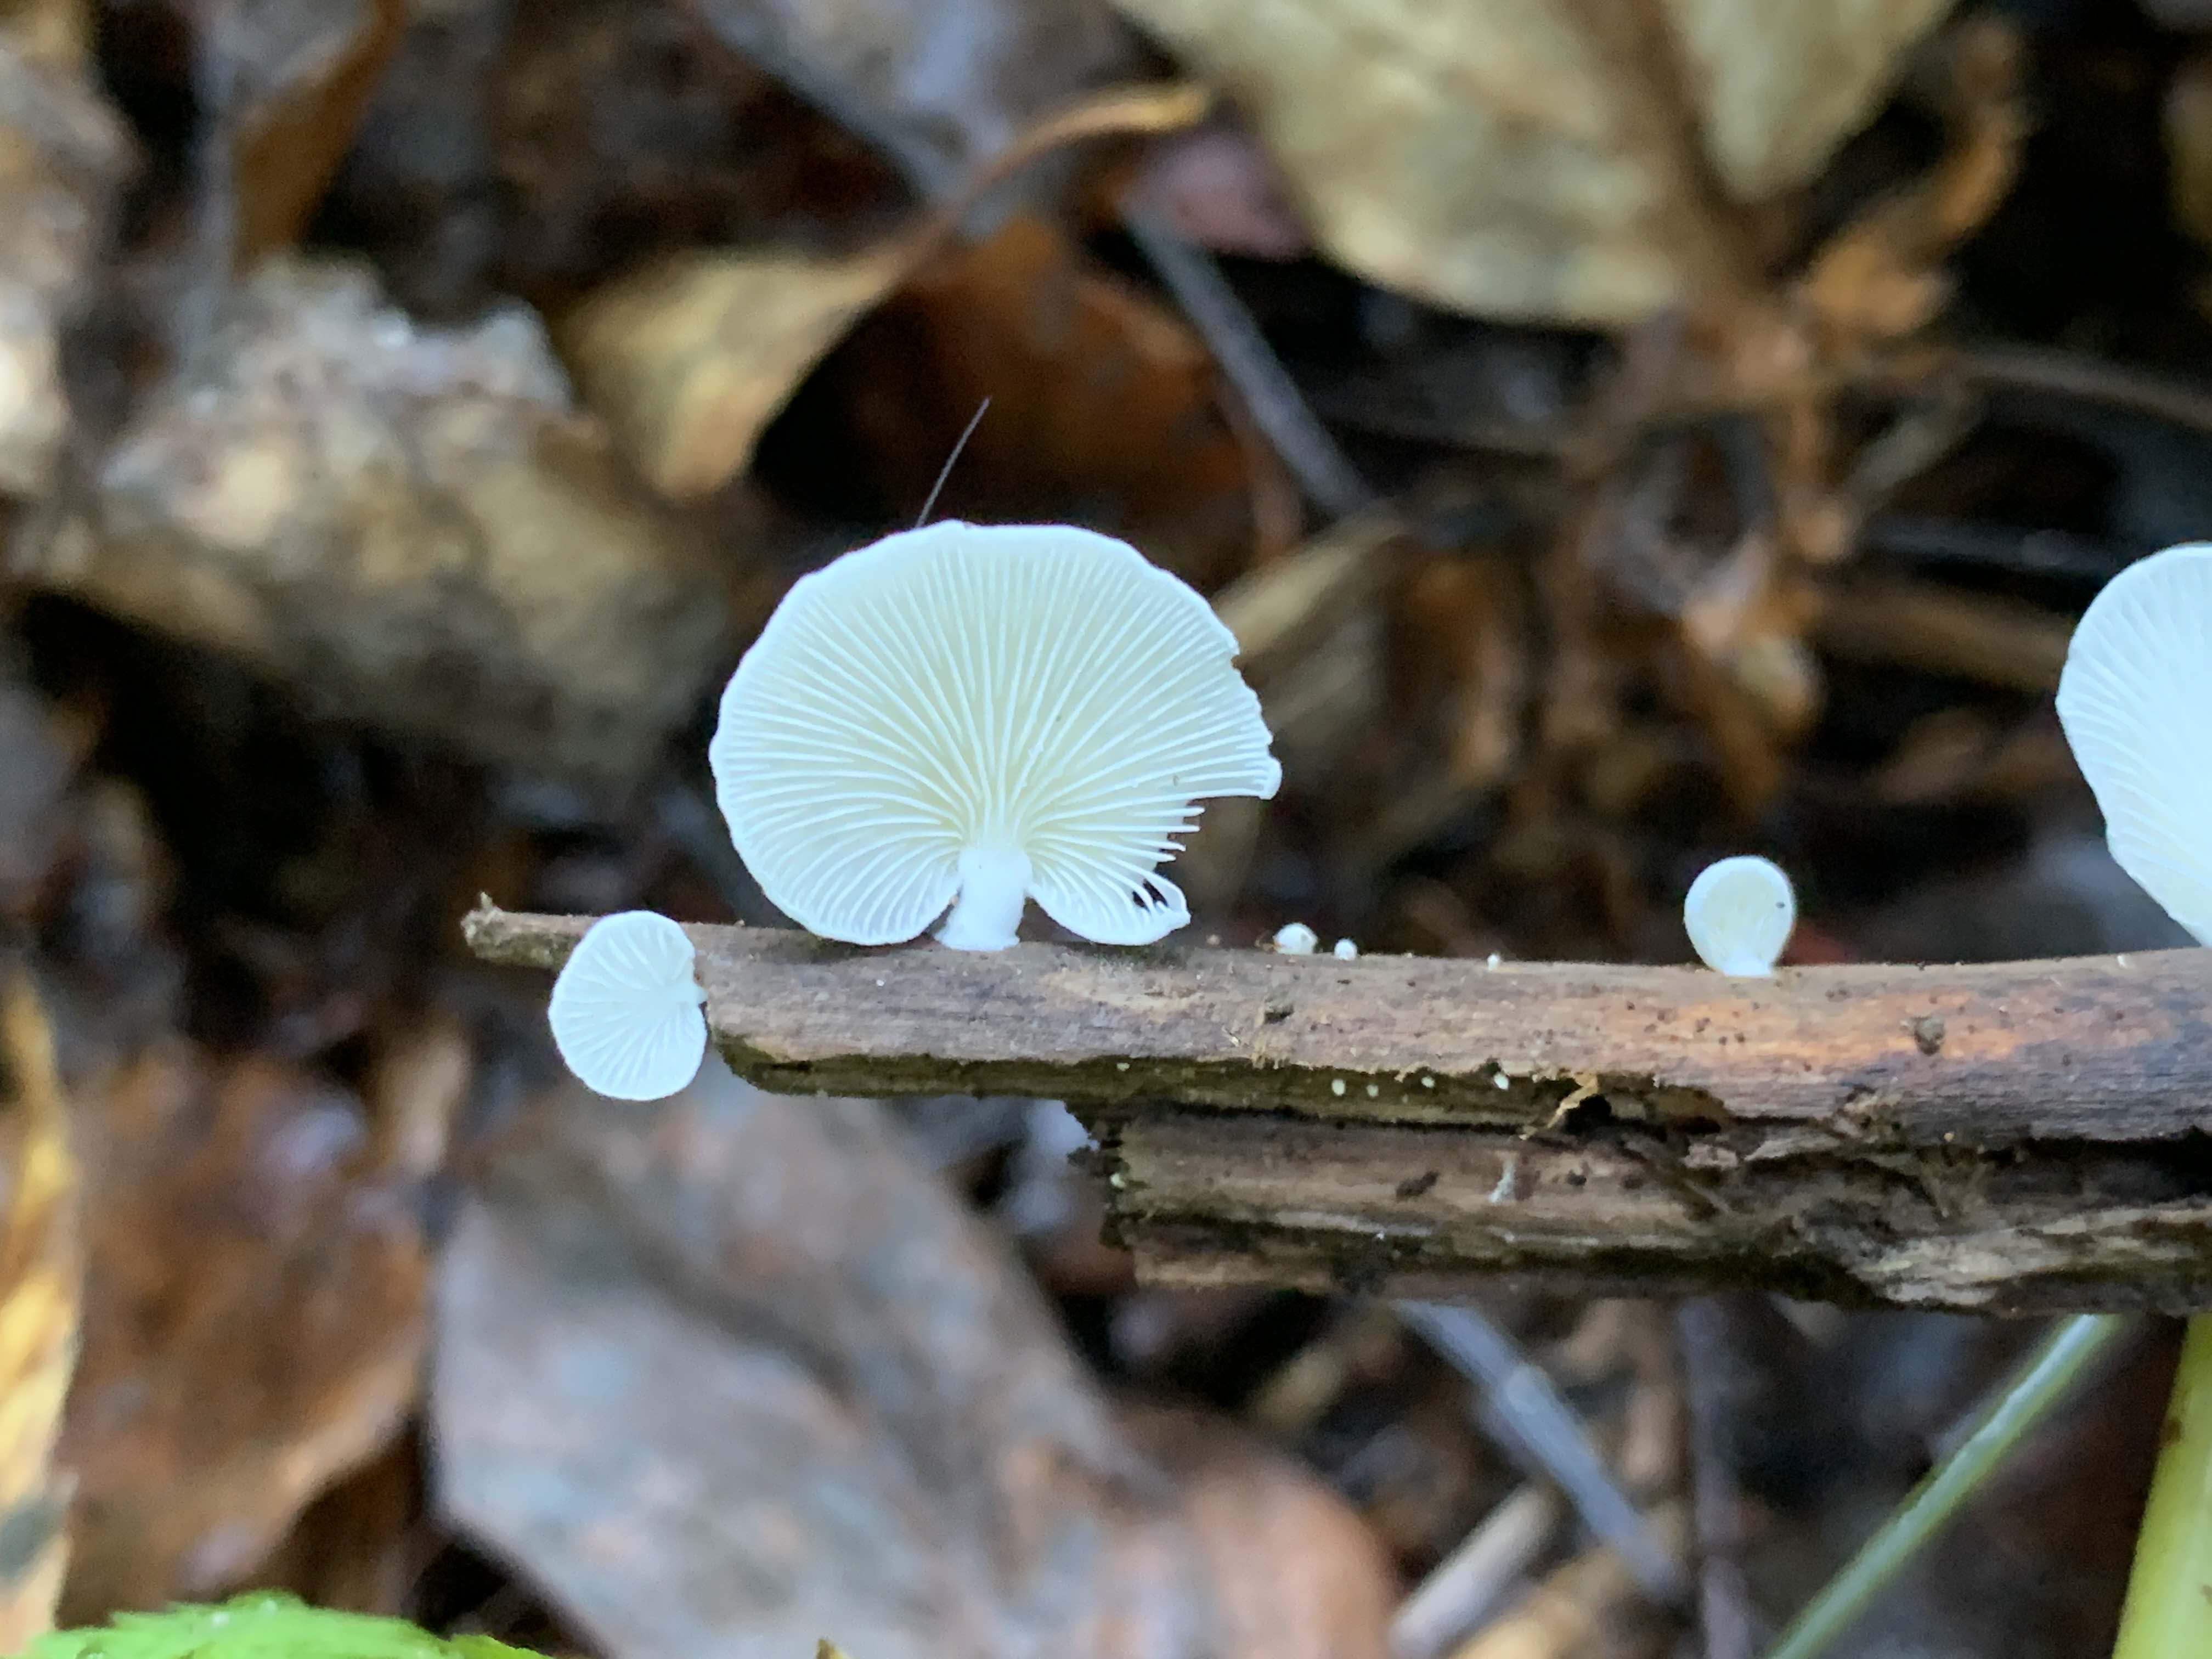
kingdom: Fungi
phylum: Basidiomycota
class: Agaricomycetes
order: Agaricales
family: Cyphellaceae
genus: Cheimonophyllum
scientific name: Cheimonophyllum
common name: vifteblad
